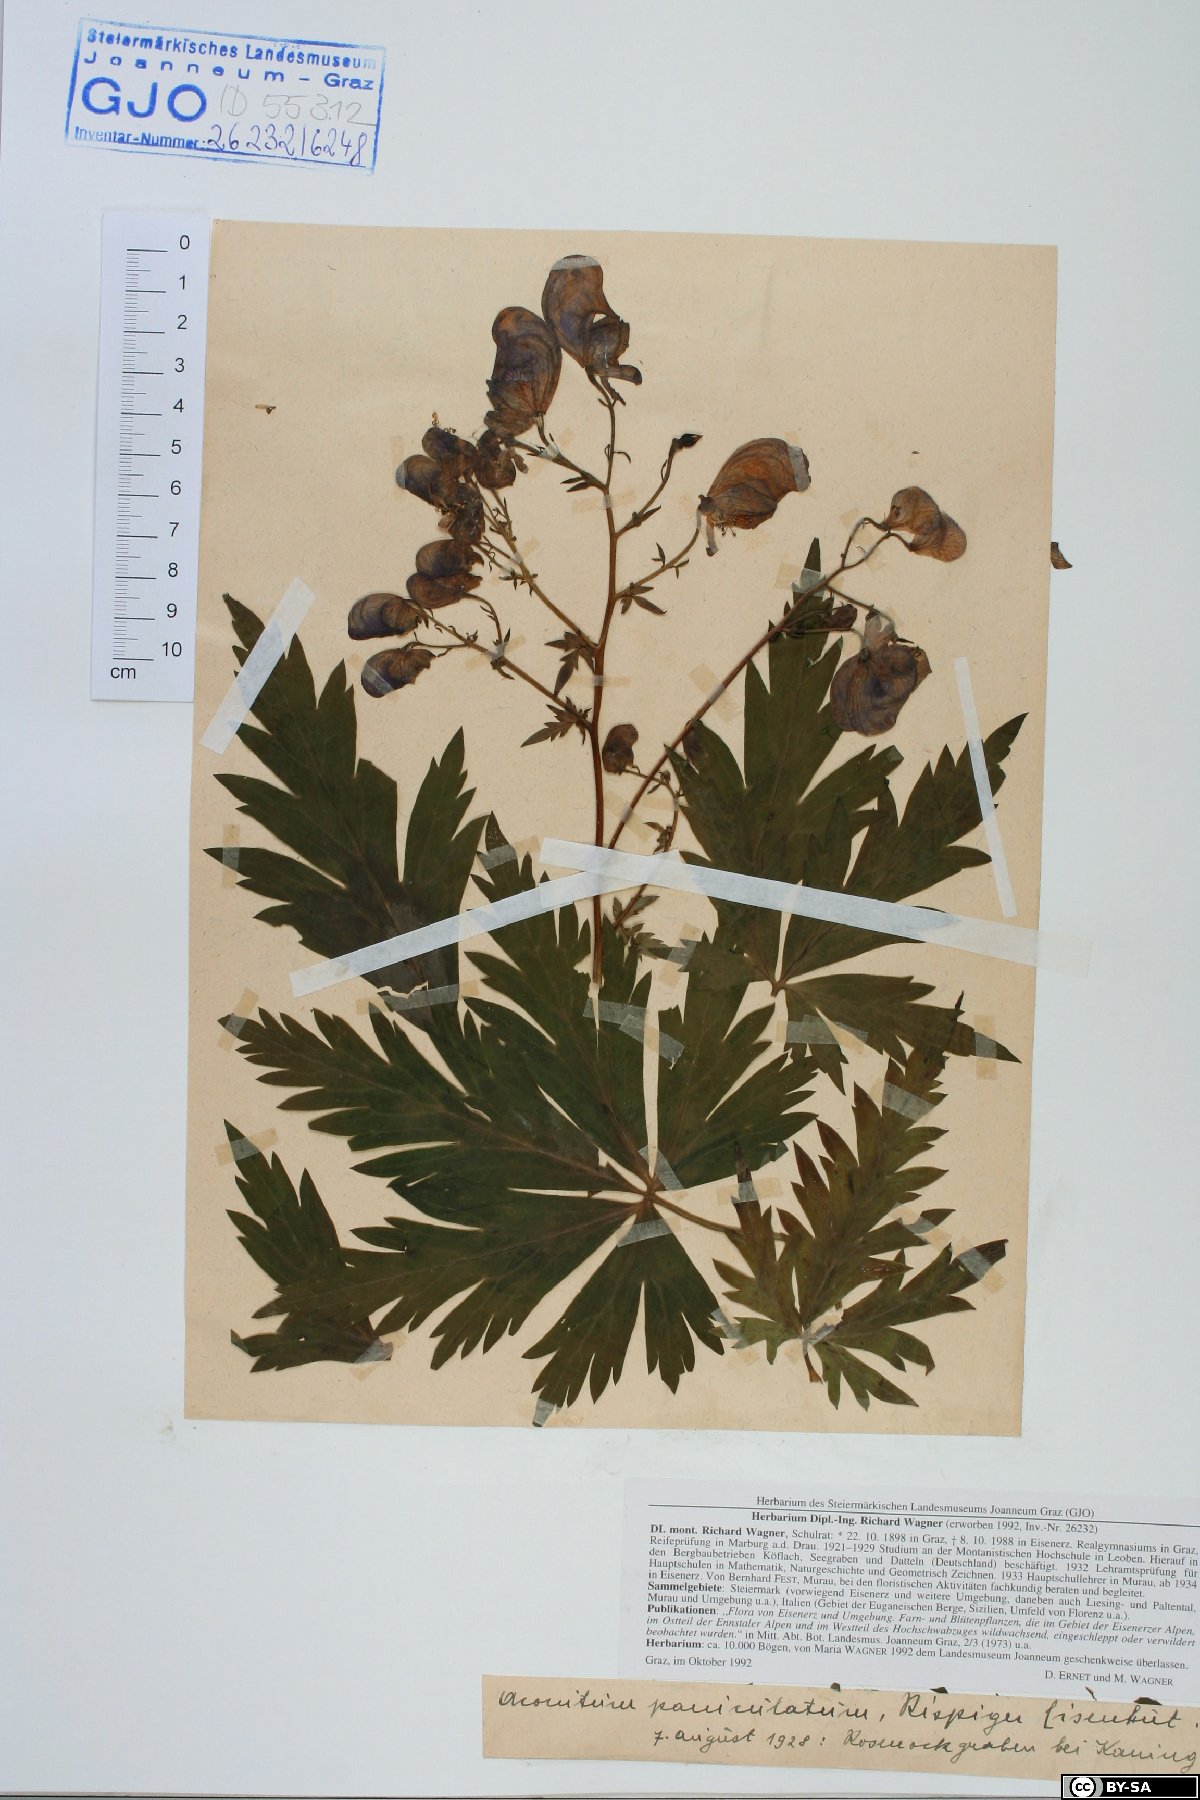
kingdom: Plantae
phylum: Tracheophyta
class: Magnoliopsida
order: Ranunculales
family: Ranunculaceae
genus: Aconitum
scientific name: Aconitum degenii
